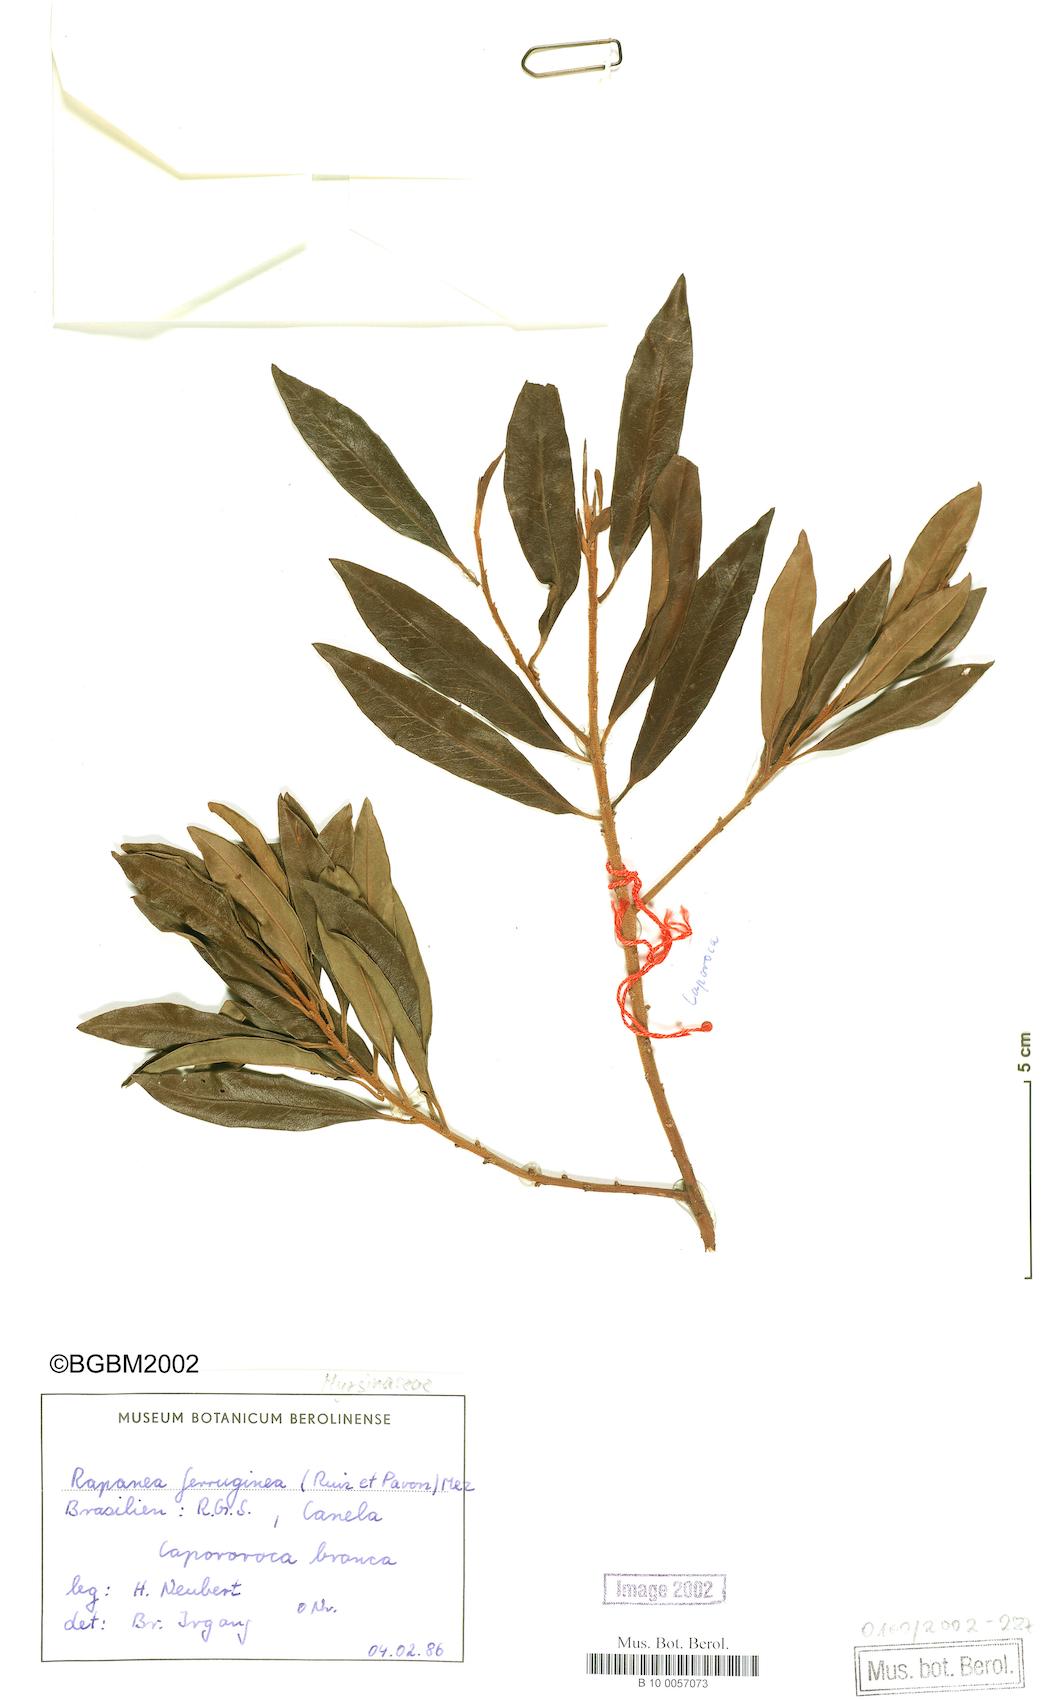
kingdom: Plantae
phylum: Tracheophyta
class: Magnoliopsida
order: Ericales
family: Primulaceae
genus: Myrsine
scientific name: Myrsine coriacea
